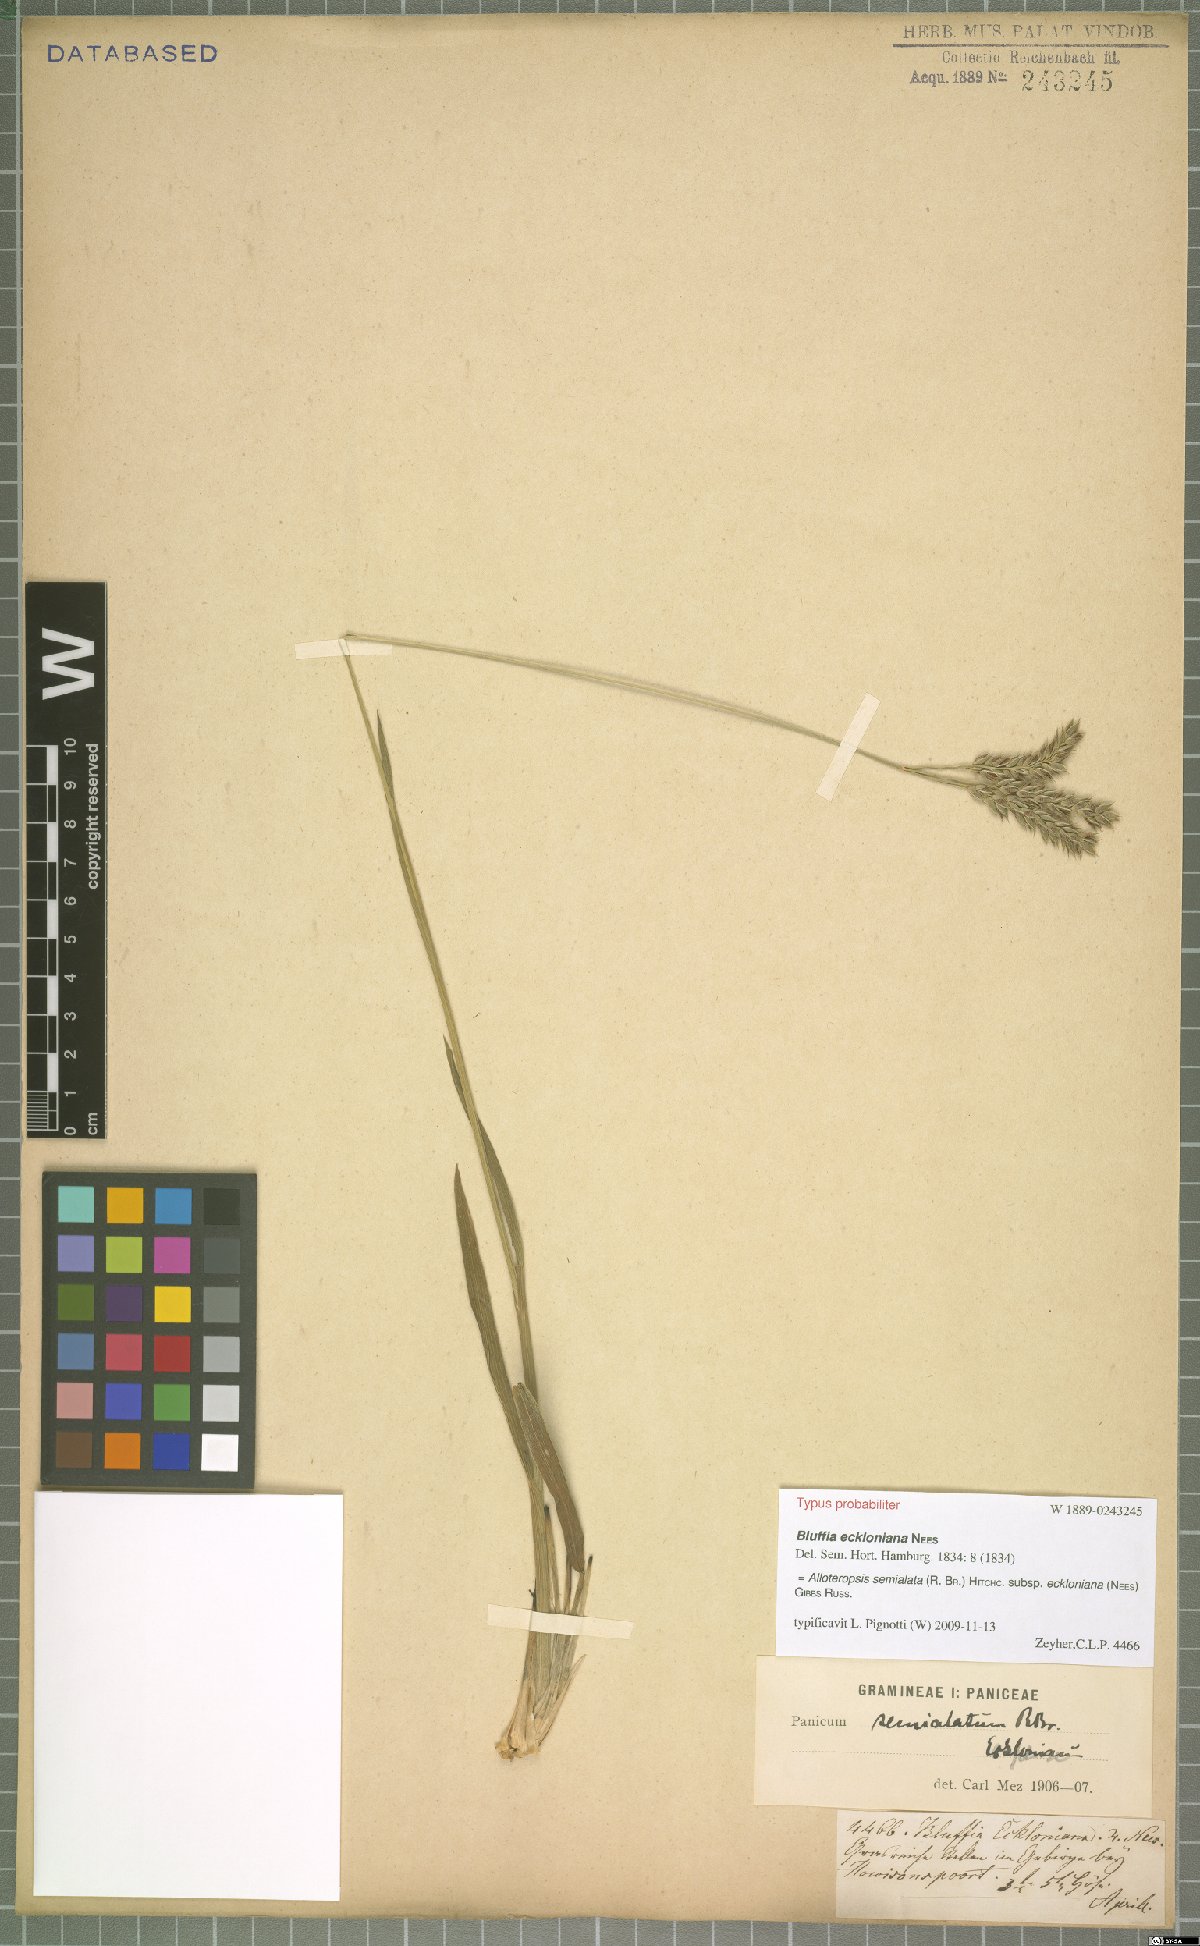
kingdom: Plantae
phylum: Tracheophyta
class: Liliopsida
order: Poales
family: Poaceae
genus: Alloteropsis
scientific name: Alloteropsis semialata
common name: Cockatoo grass
